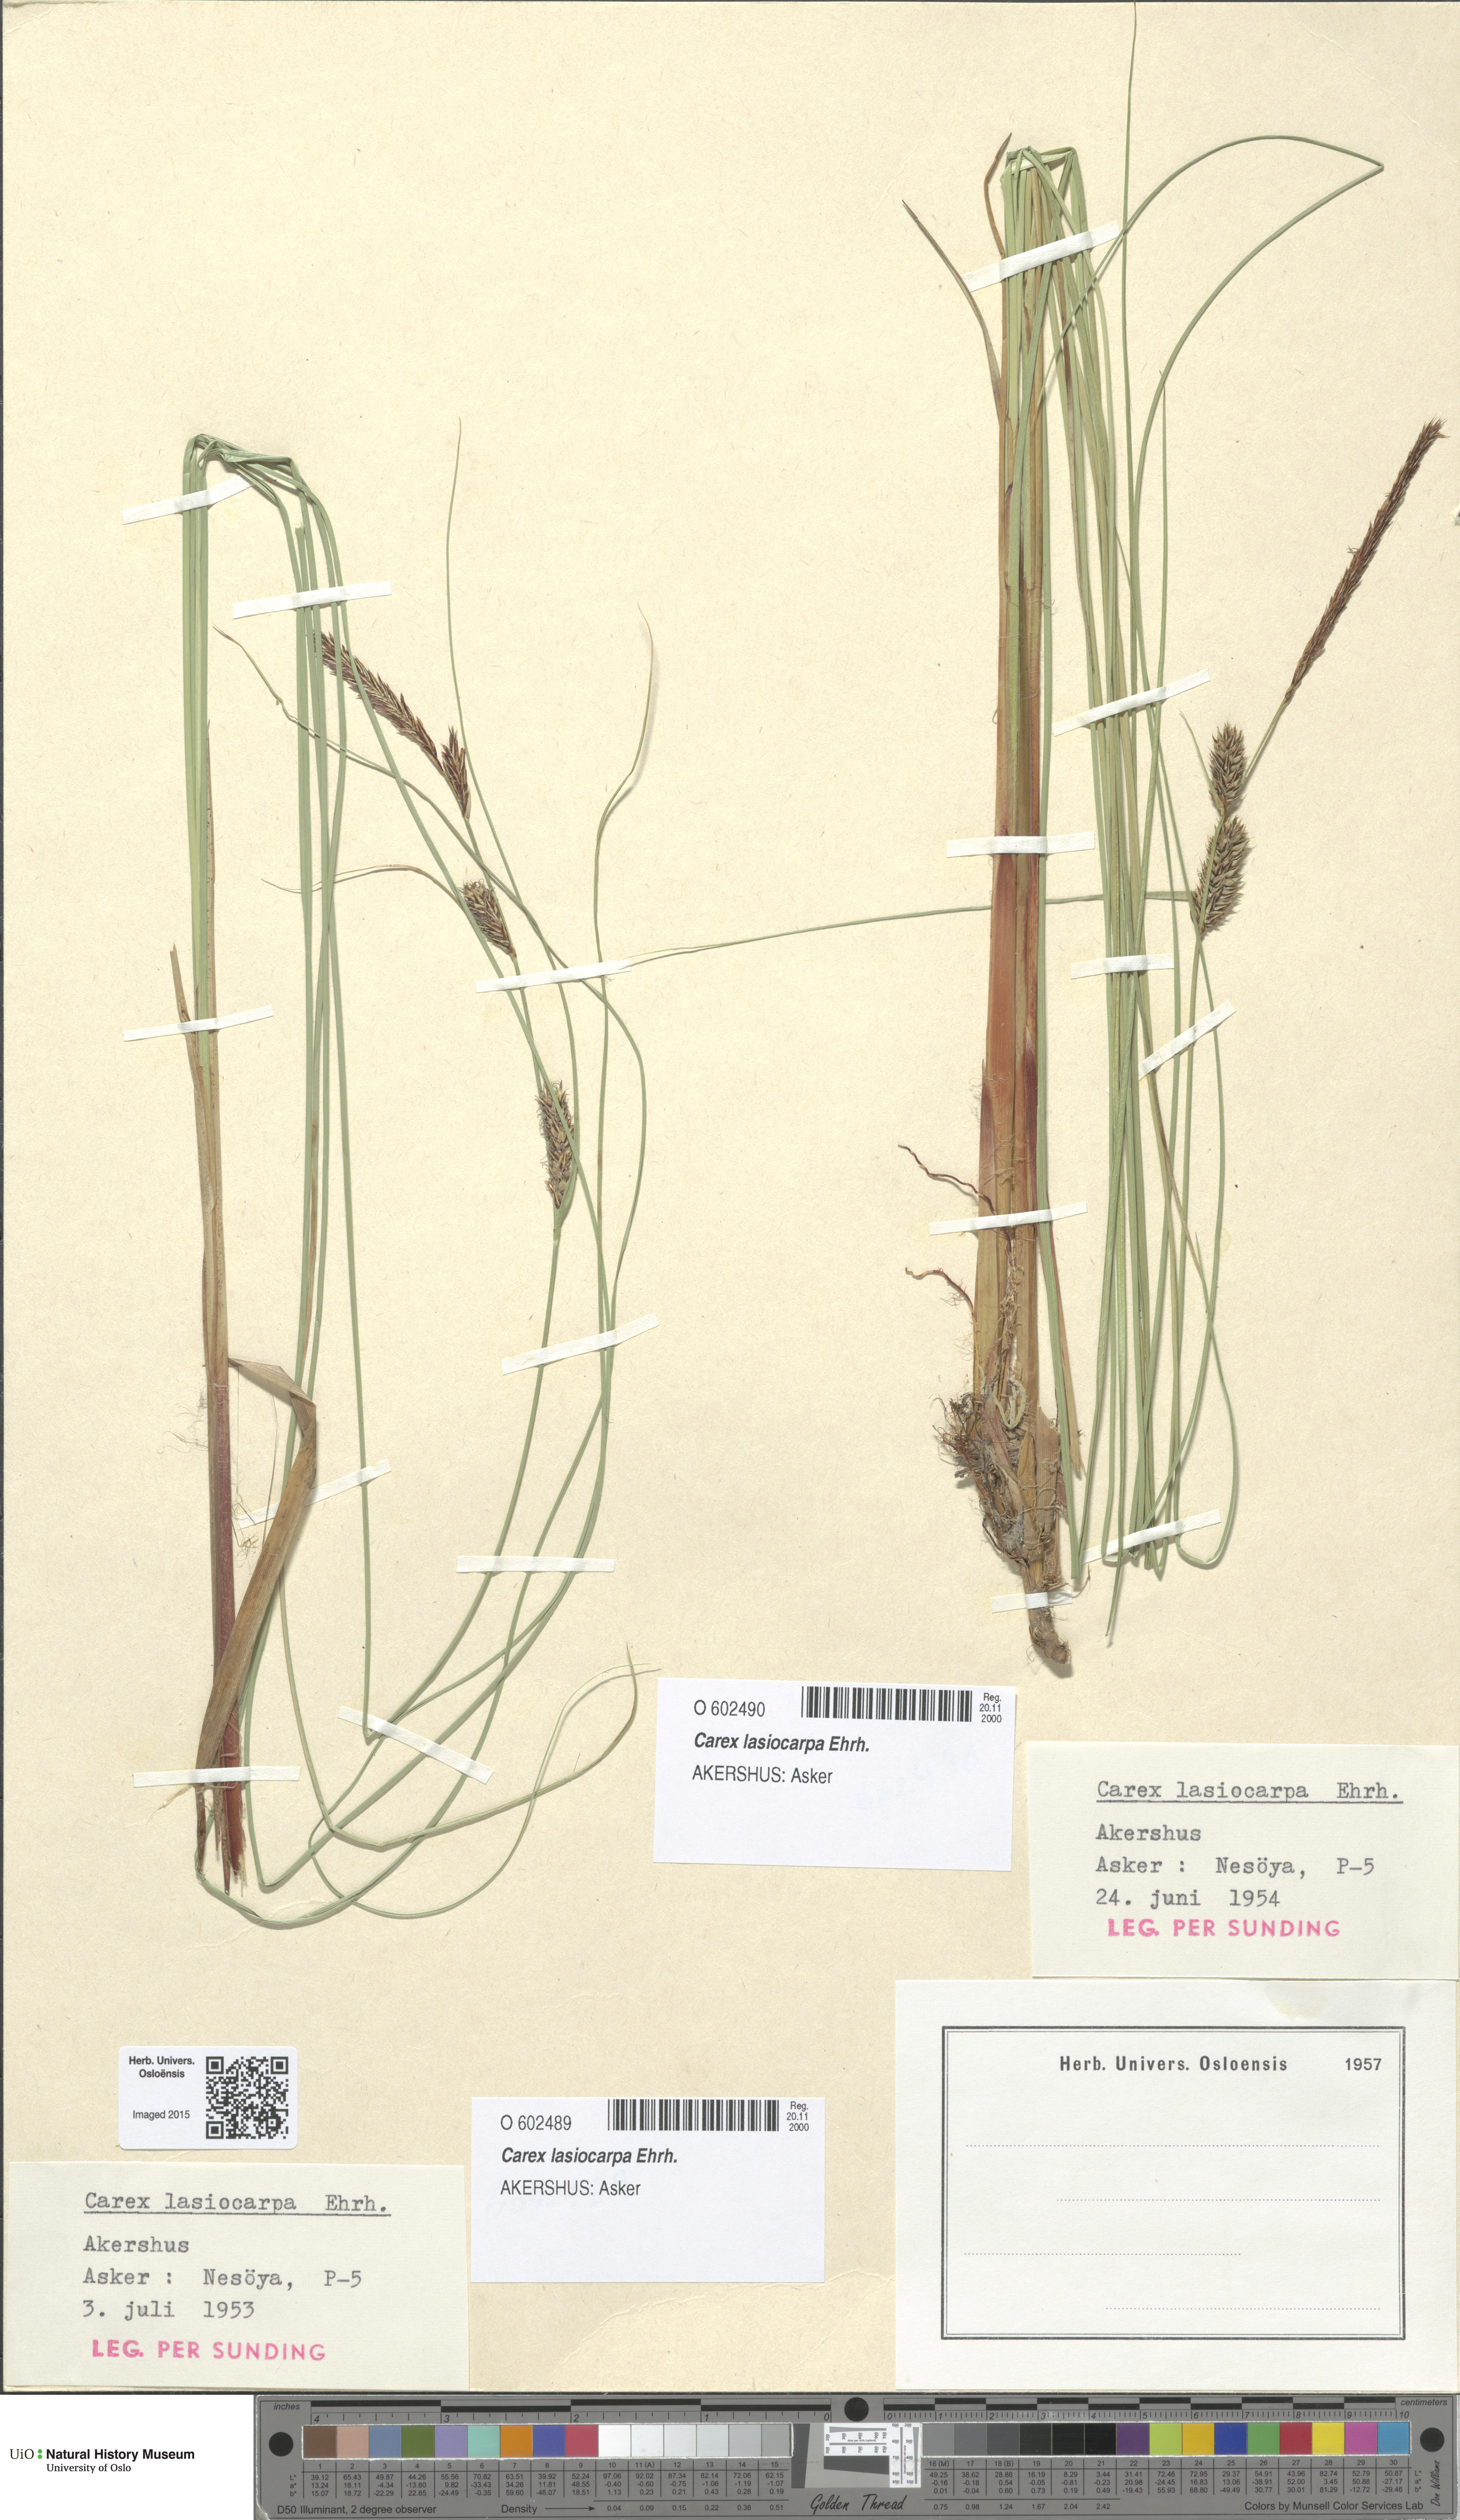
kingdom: Plantae
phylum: Tracheophyta
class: Liliopsida
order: Poales
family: Cyperaceae
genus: Carex
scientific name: Carex lasiocarpa
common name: Slender sedge
